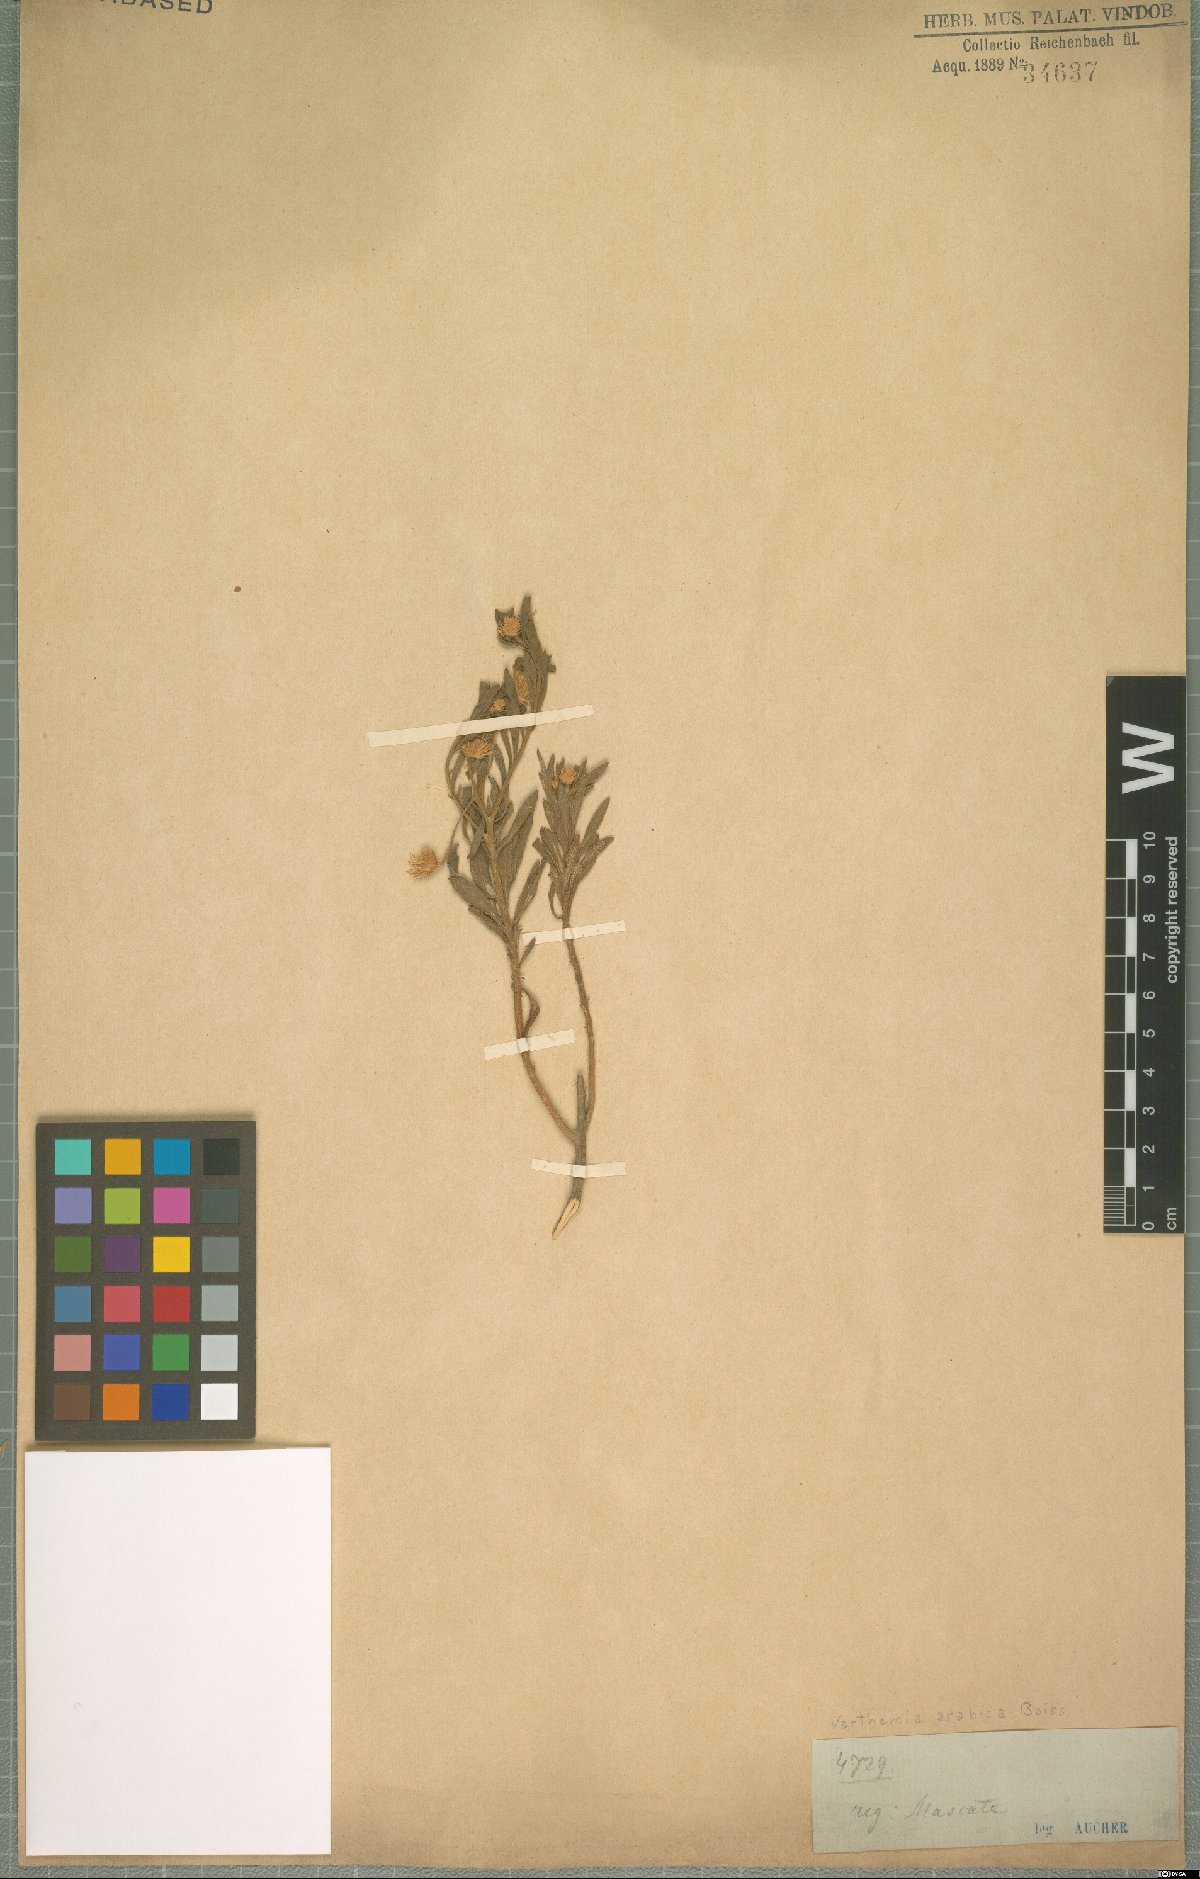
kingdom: Plantae
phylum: Tracheophyta
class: Magnoliopsida
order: Asterales
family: Asteraceae
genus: Pluchea
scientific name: Pluchea arabica
